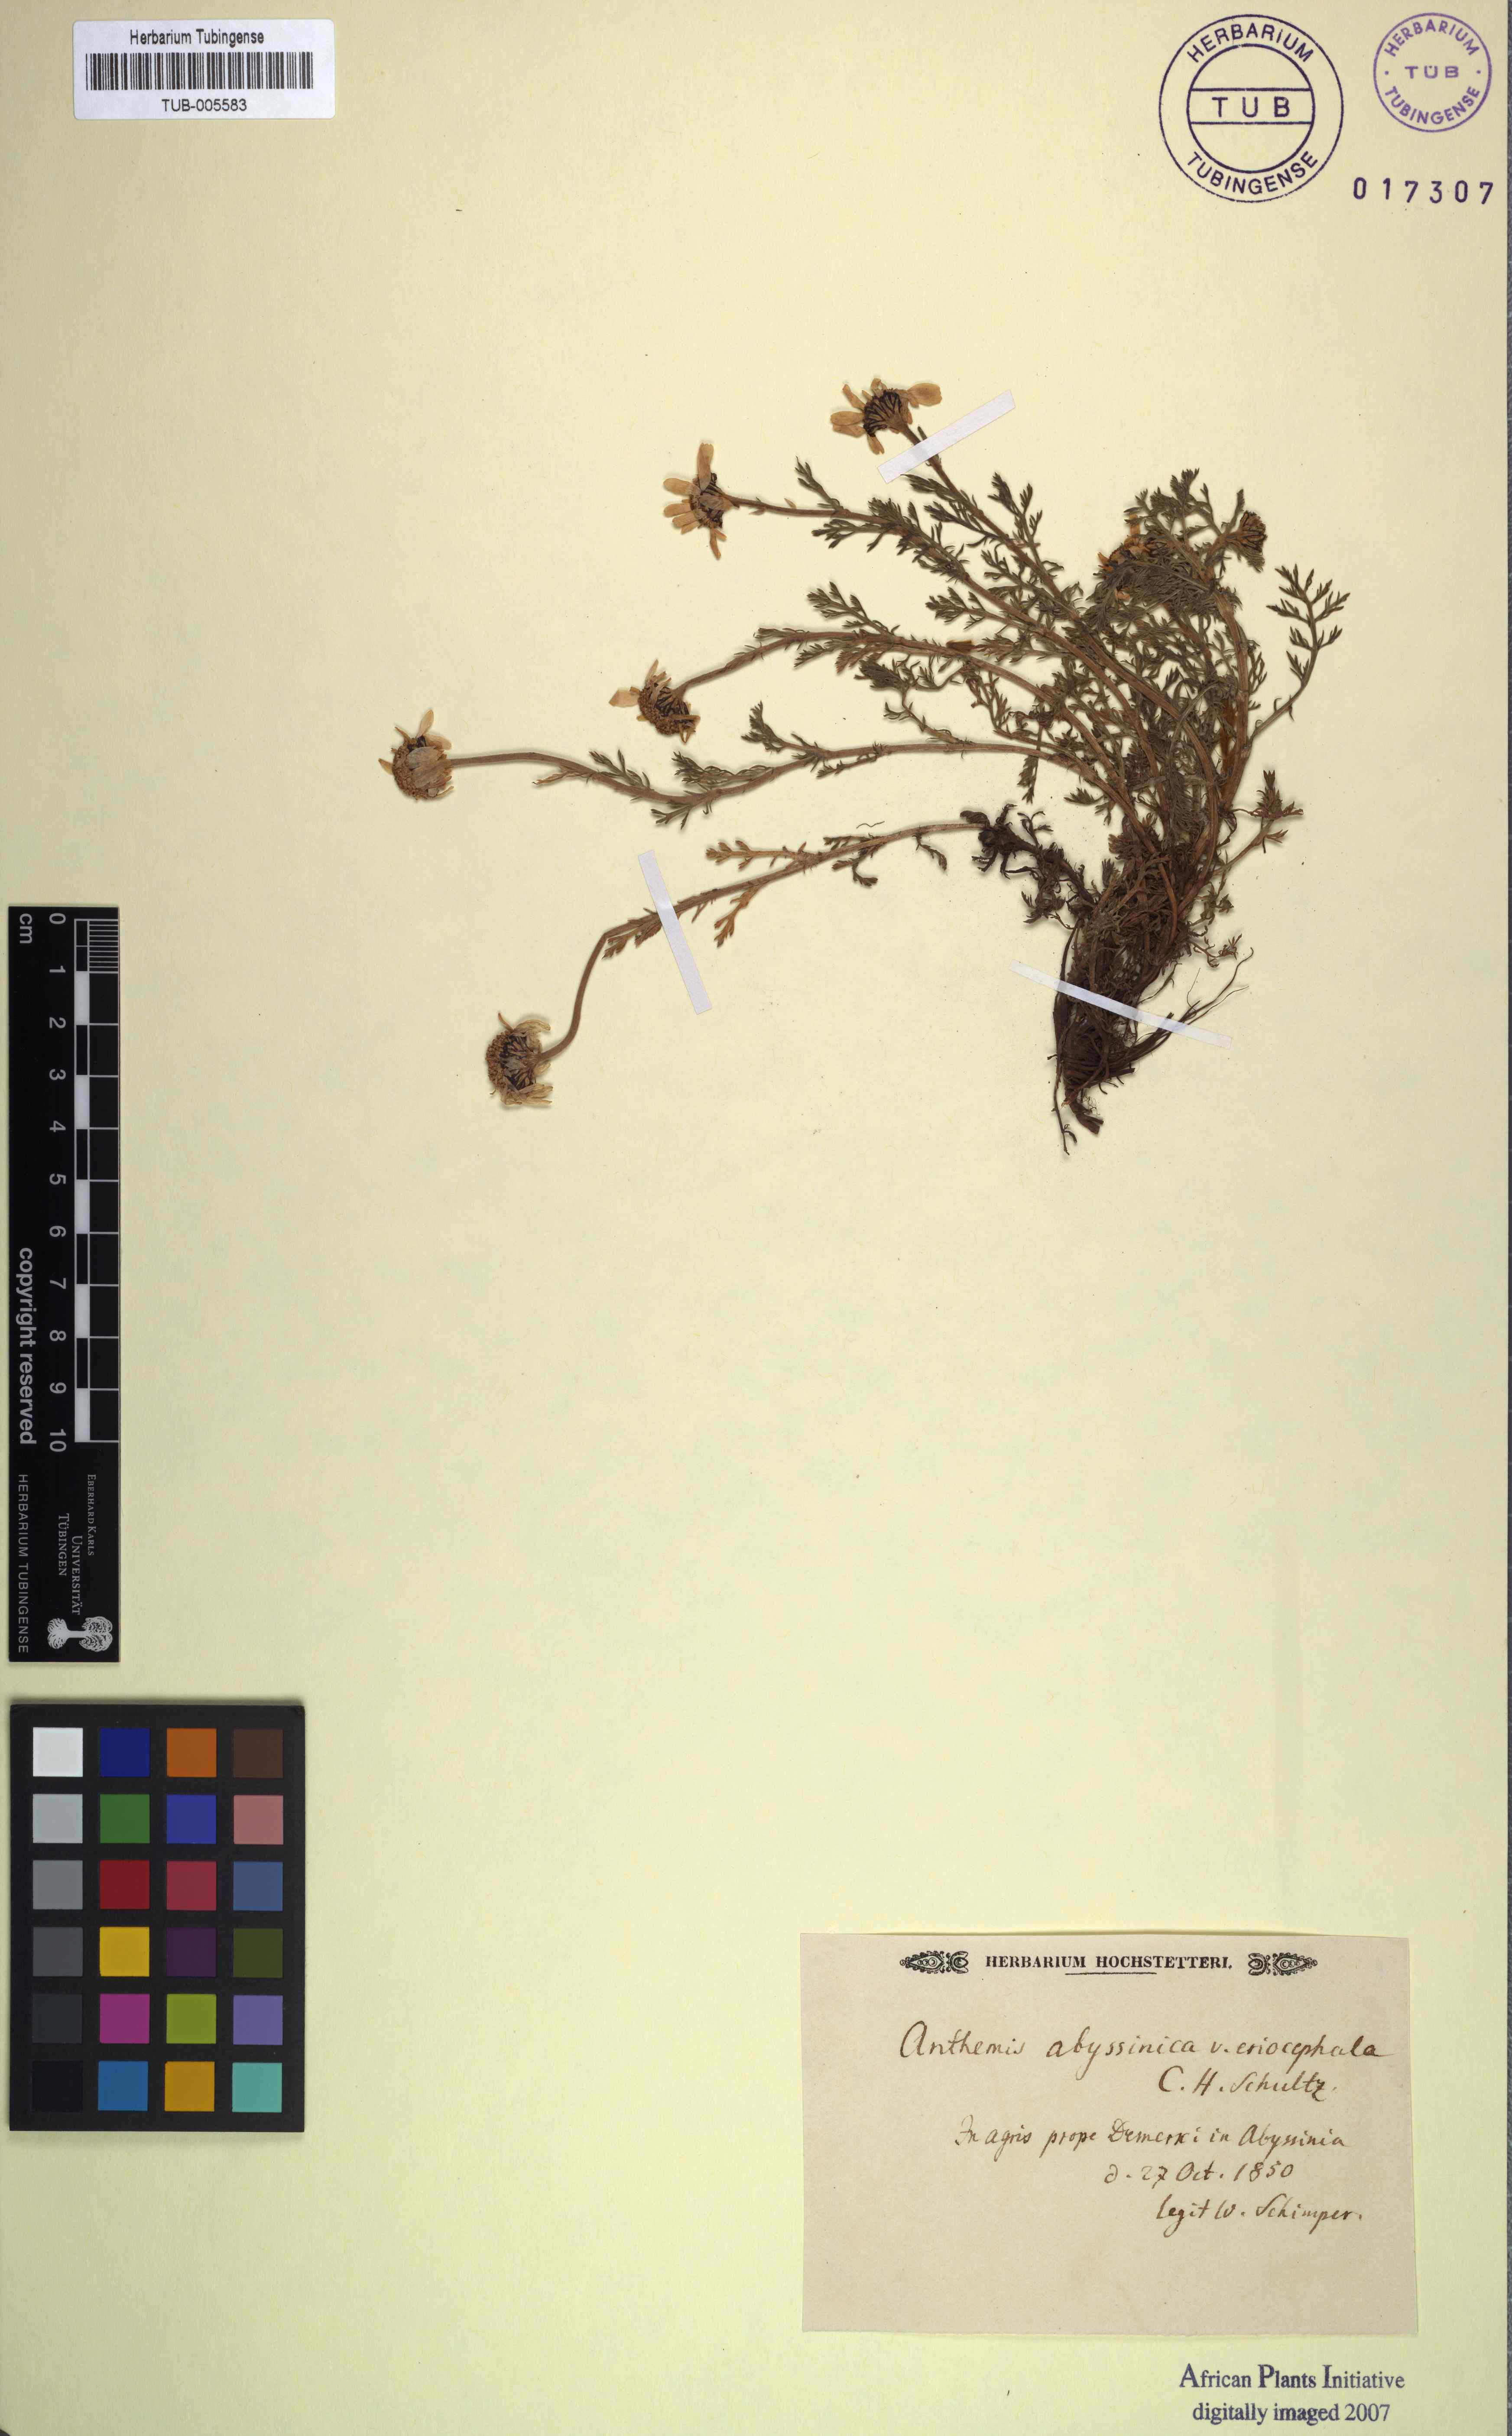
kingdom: Plantae
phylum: Tracheophyta
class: Magnoliopsida
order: Asterales
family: Asteraceae
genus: Anthemis
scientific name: Anthemis abyssinica
